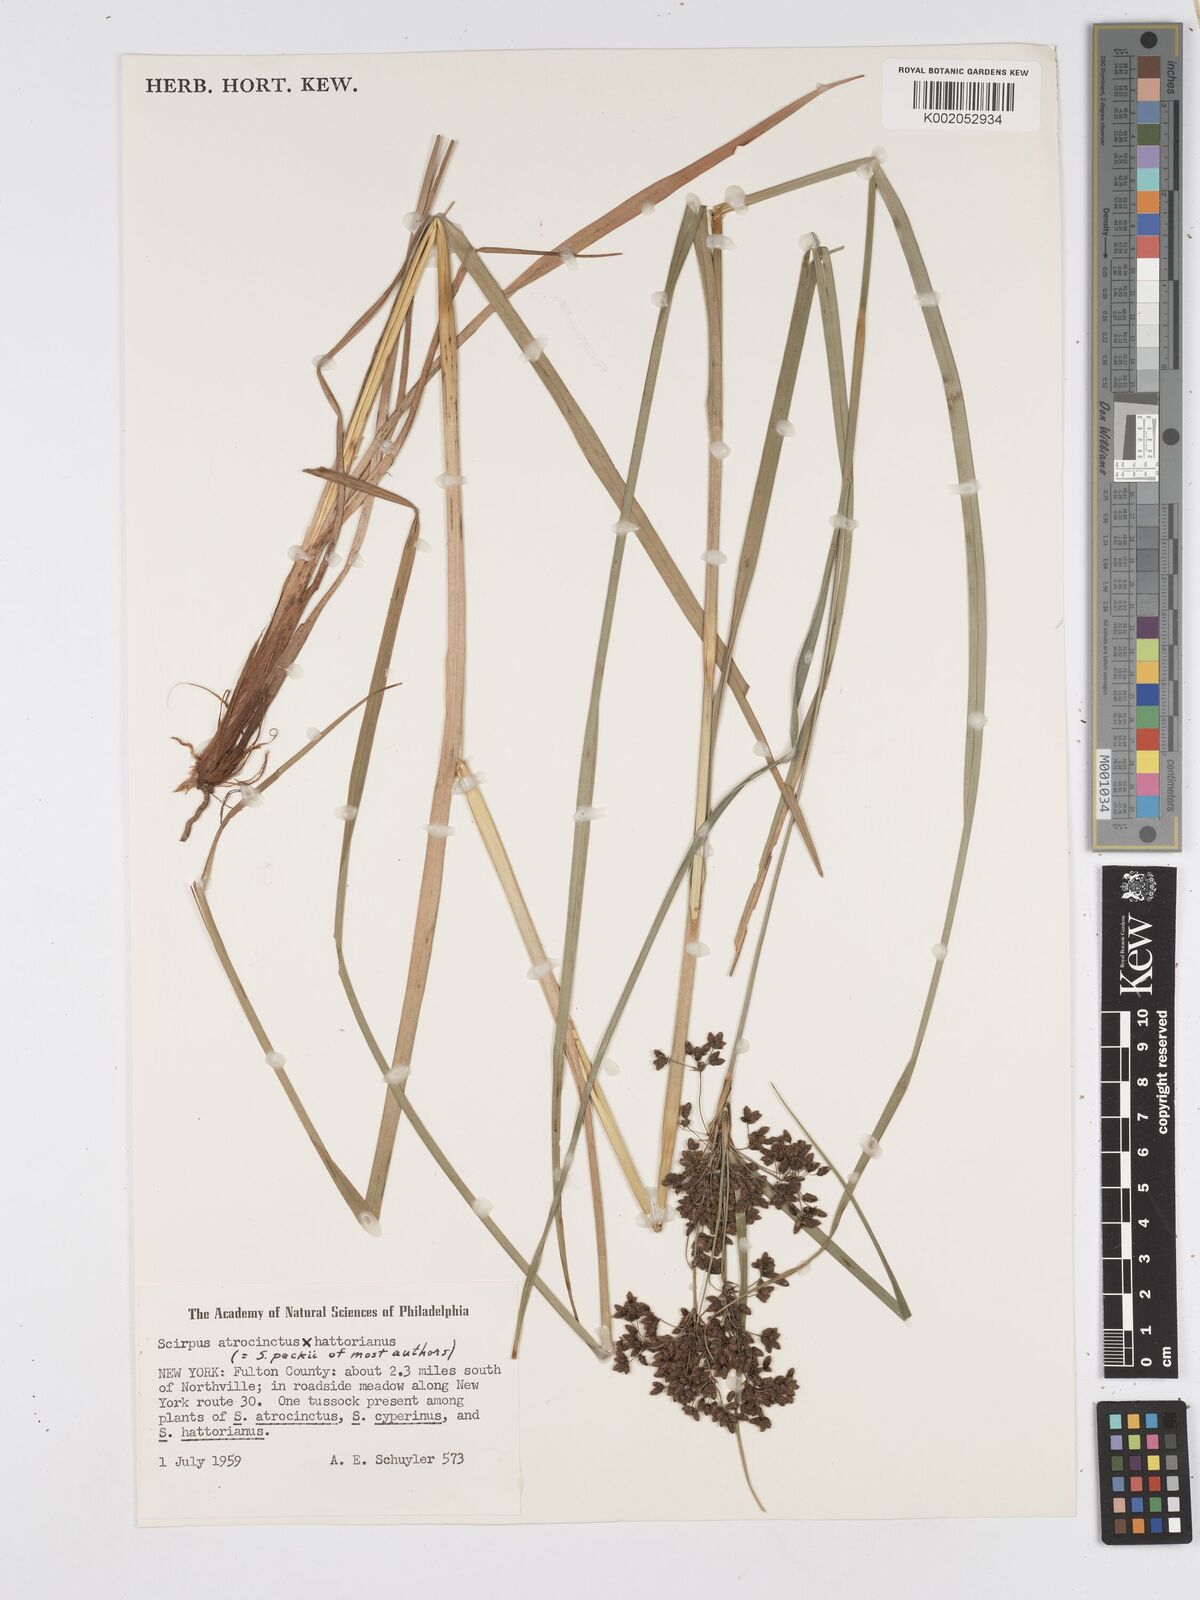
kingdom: Plantae
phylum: Tracheophyta
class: Liliopsida
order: Poales
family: Cyperaceae
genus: Scirpus
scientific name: Scirpus peckii
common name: Peck's bulrush
